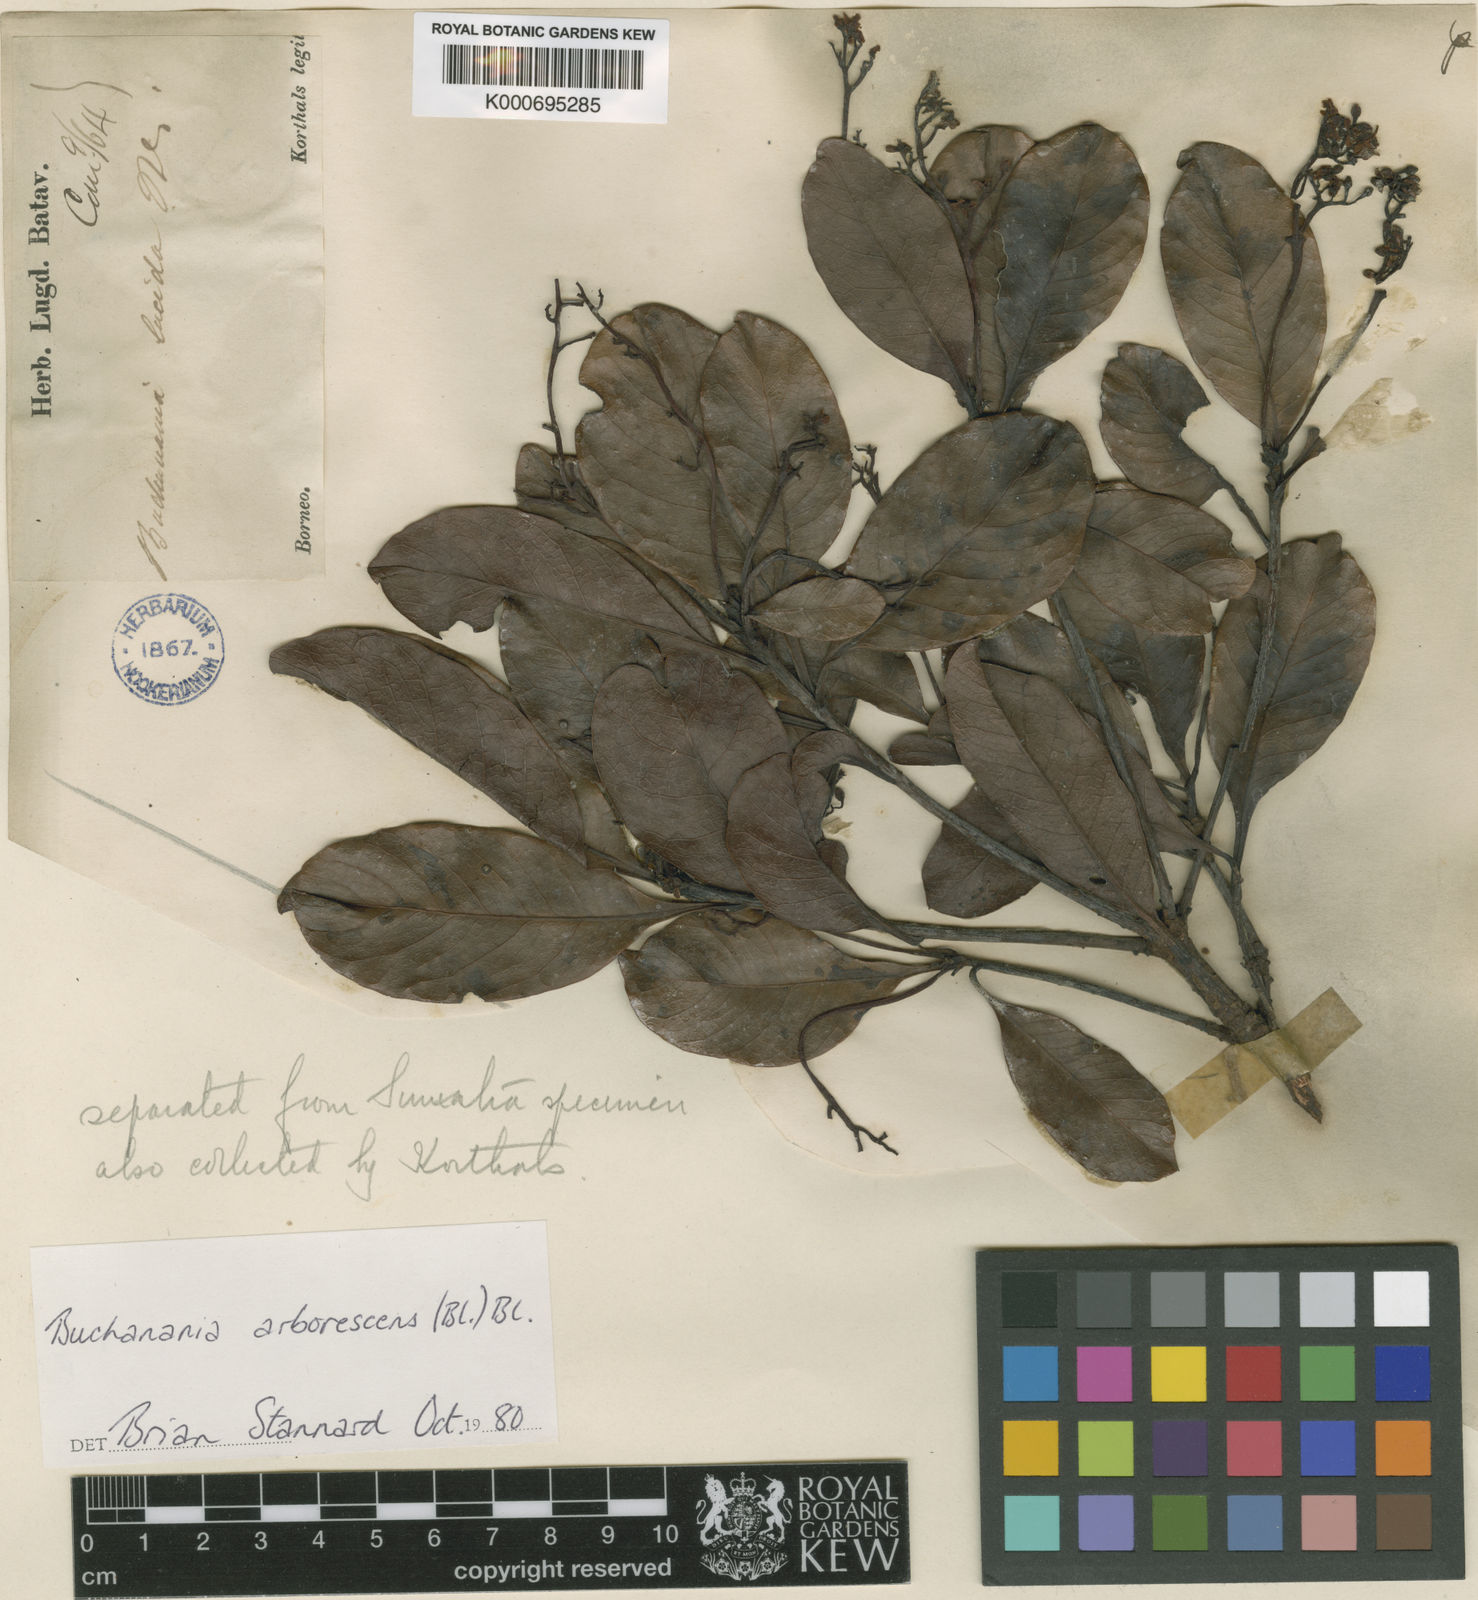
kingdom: Plantae
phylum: Tracheophyta
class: Magnoliopsida
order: Sapindales
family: Anacardiaceae
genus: Buchanania
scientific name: Buchanania arborescens
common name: Sparrow’s mango
